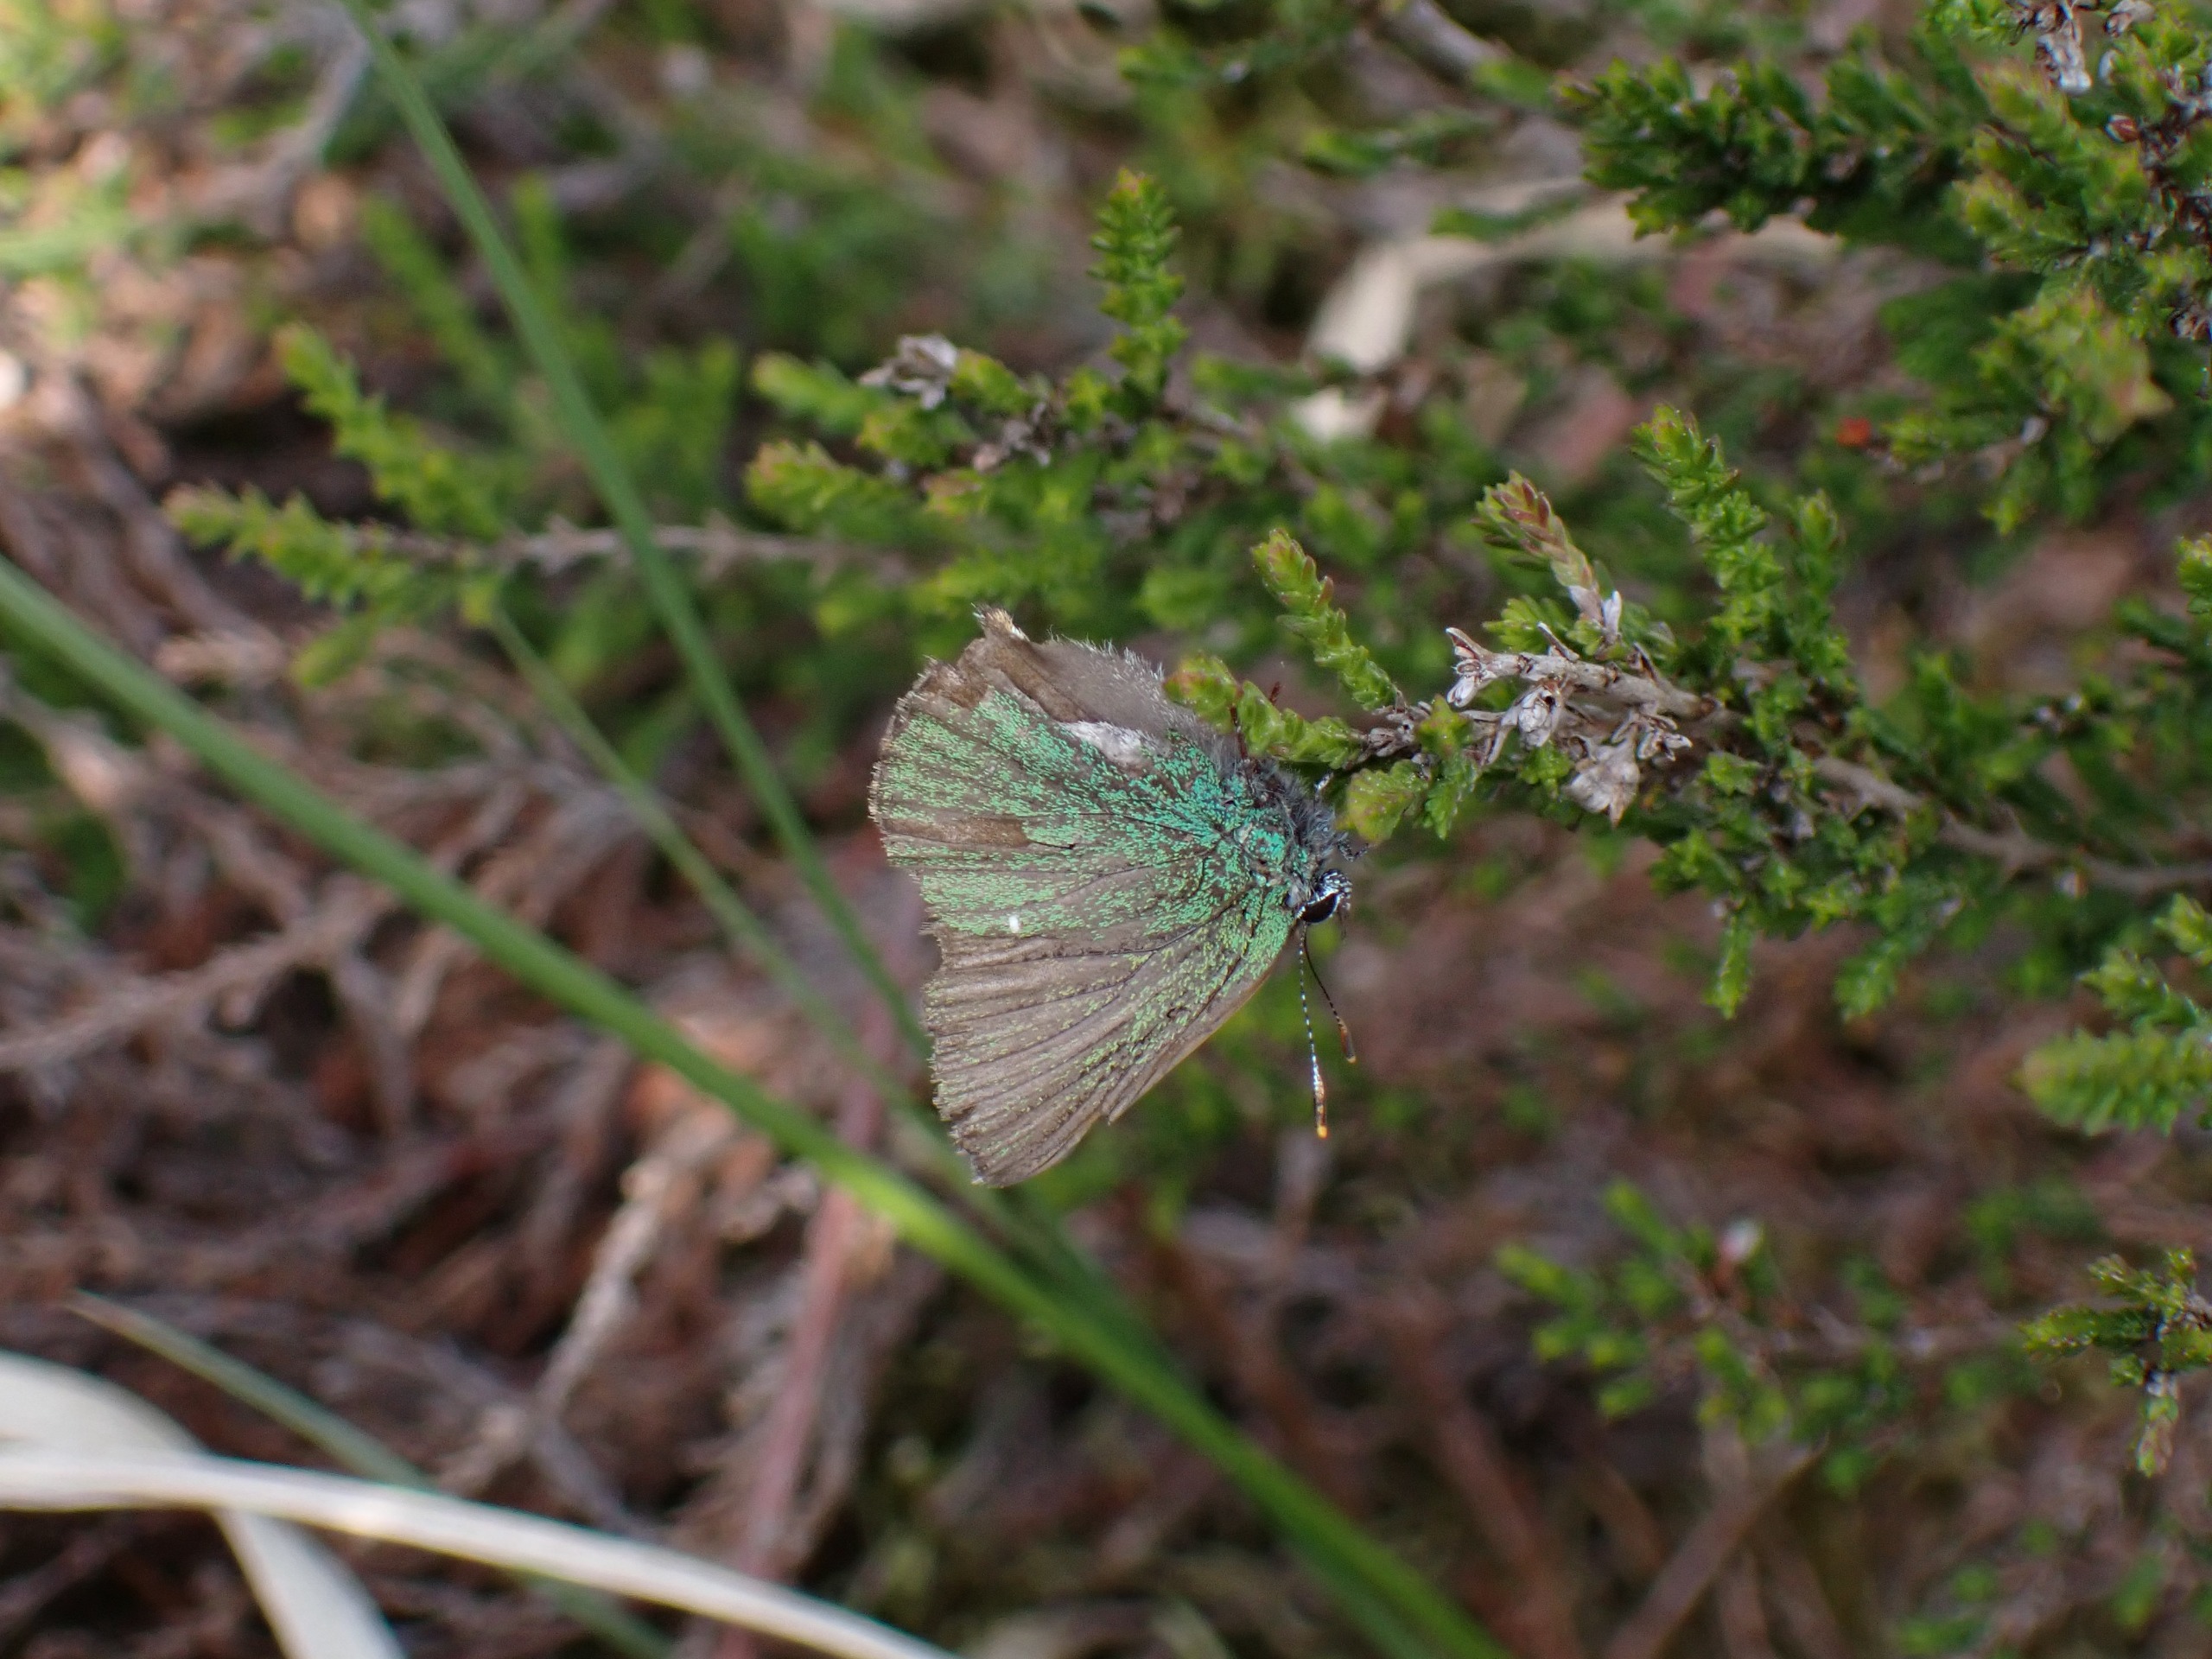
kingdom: Animalia
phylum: Arthropoda
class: Insecta
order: Lepidoptera
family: Lycaenidae
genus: Callophrys
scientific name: Callophrys rubi
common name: Grøn busksommerfugl
